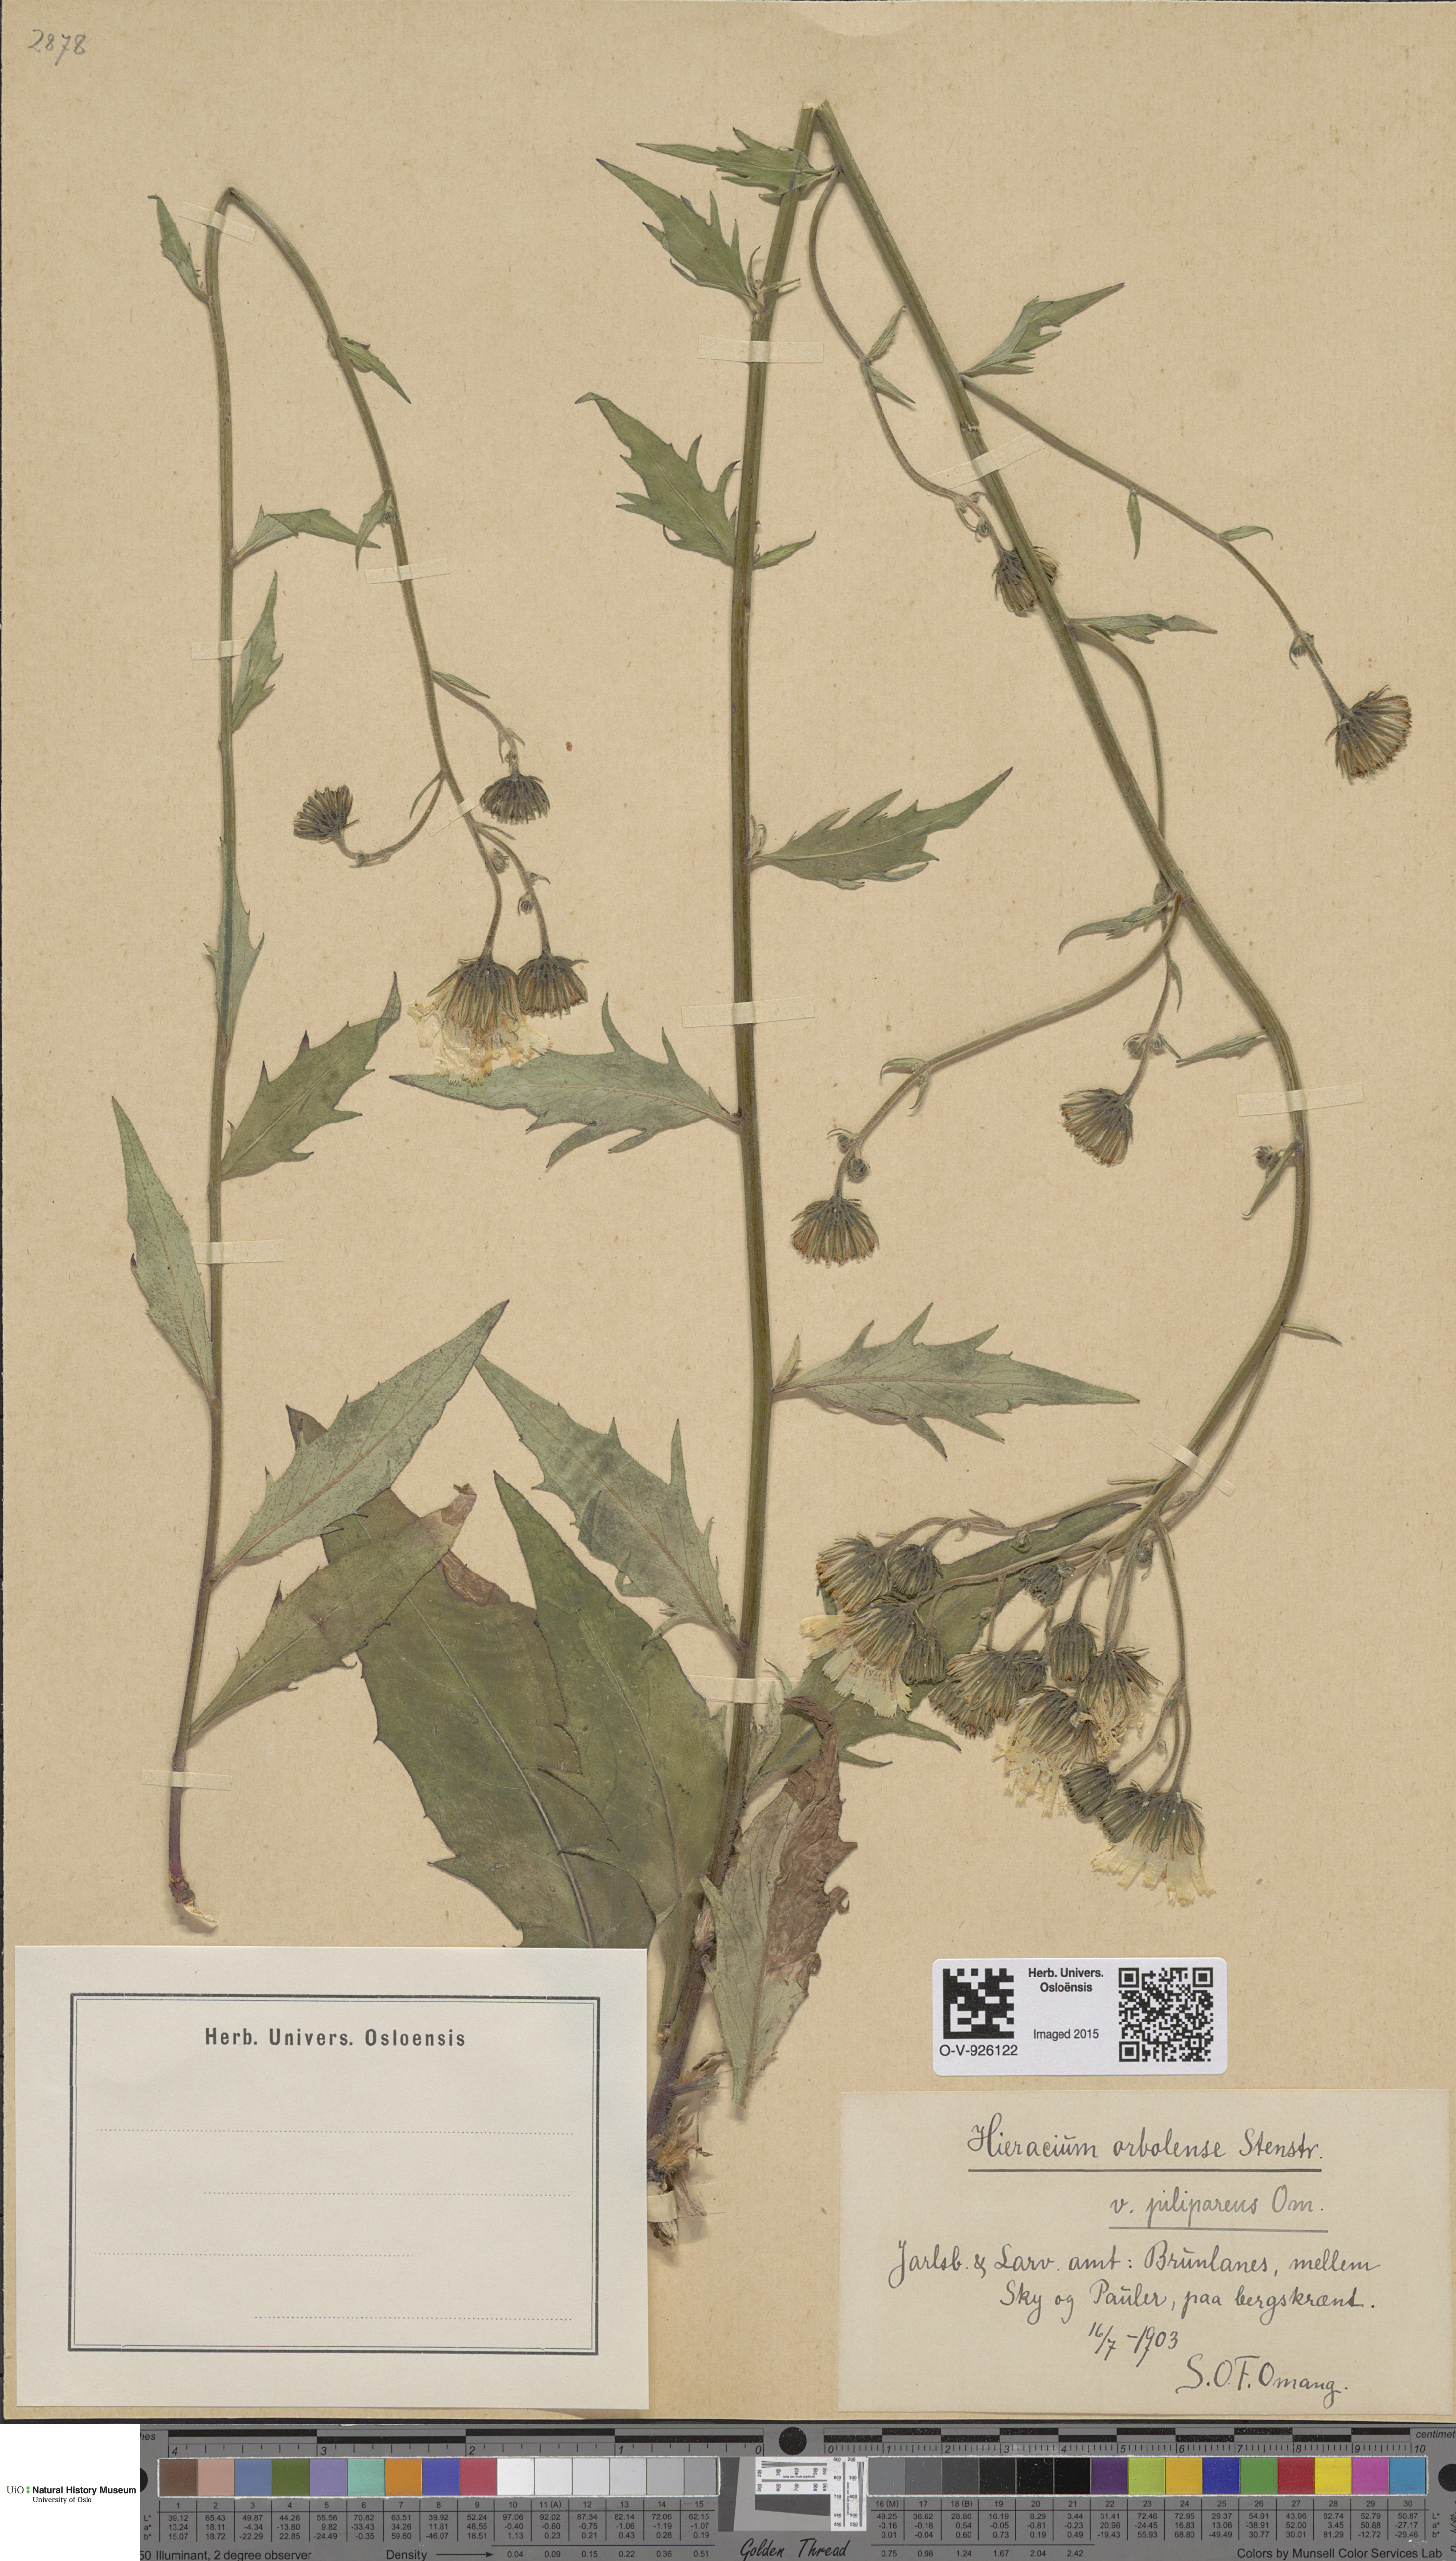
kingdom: Plantae
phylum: Tracheophyta
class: Magnoliopsida
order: Asterales
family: Asteraceae
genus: Hieracium
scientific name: Hieracium orbolense
